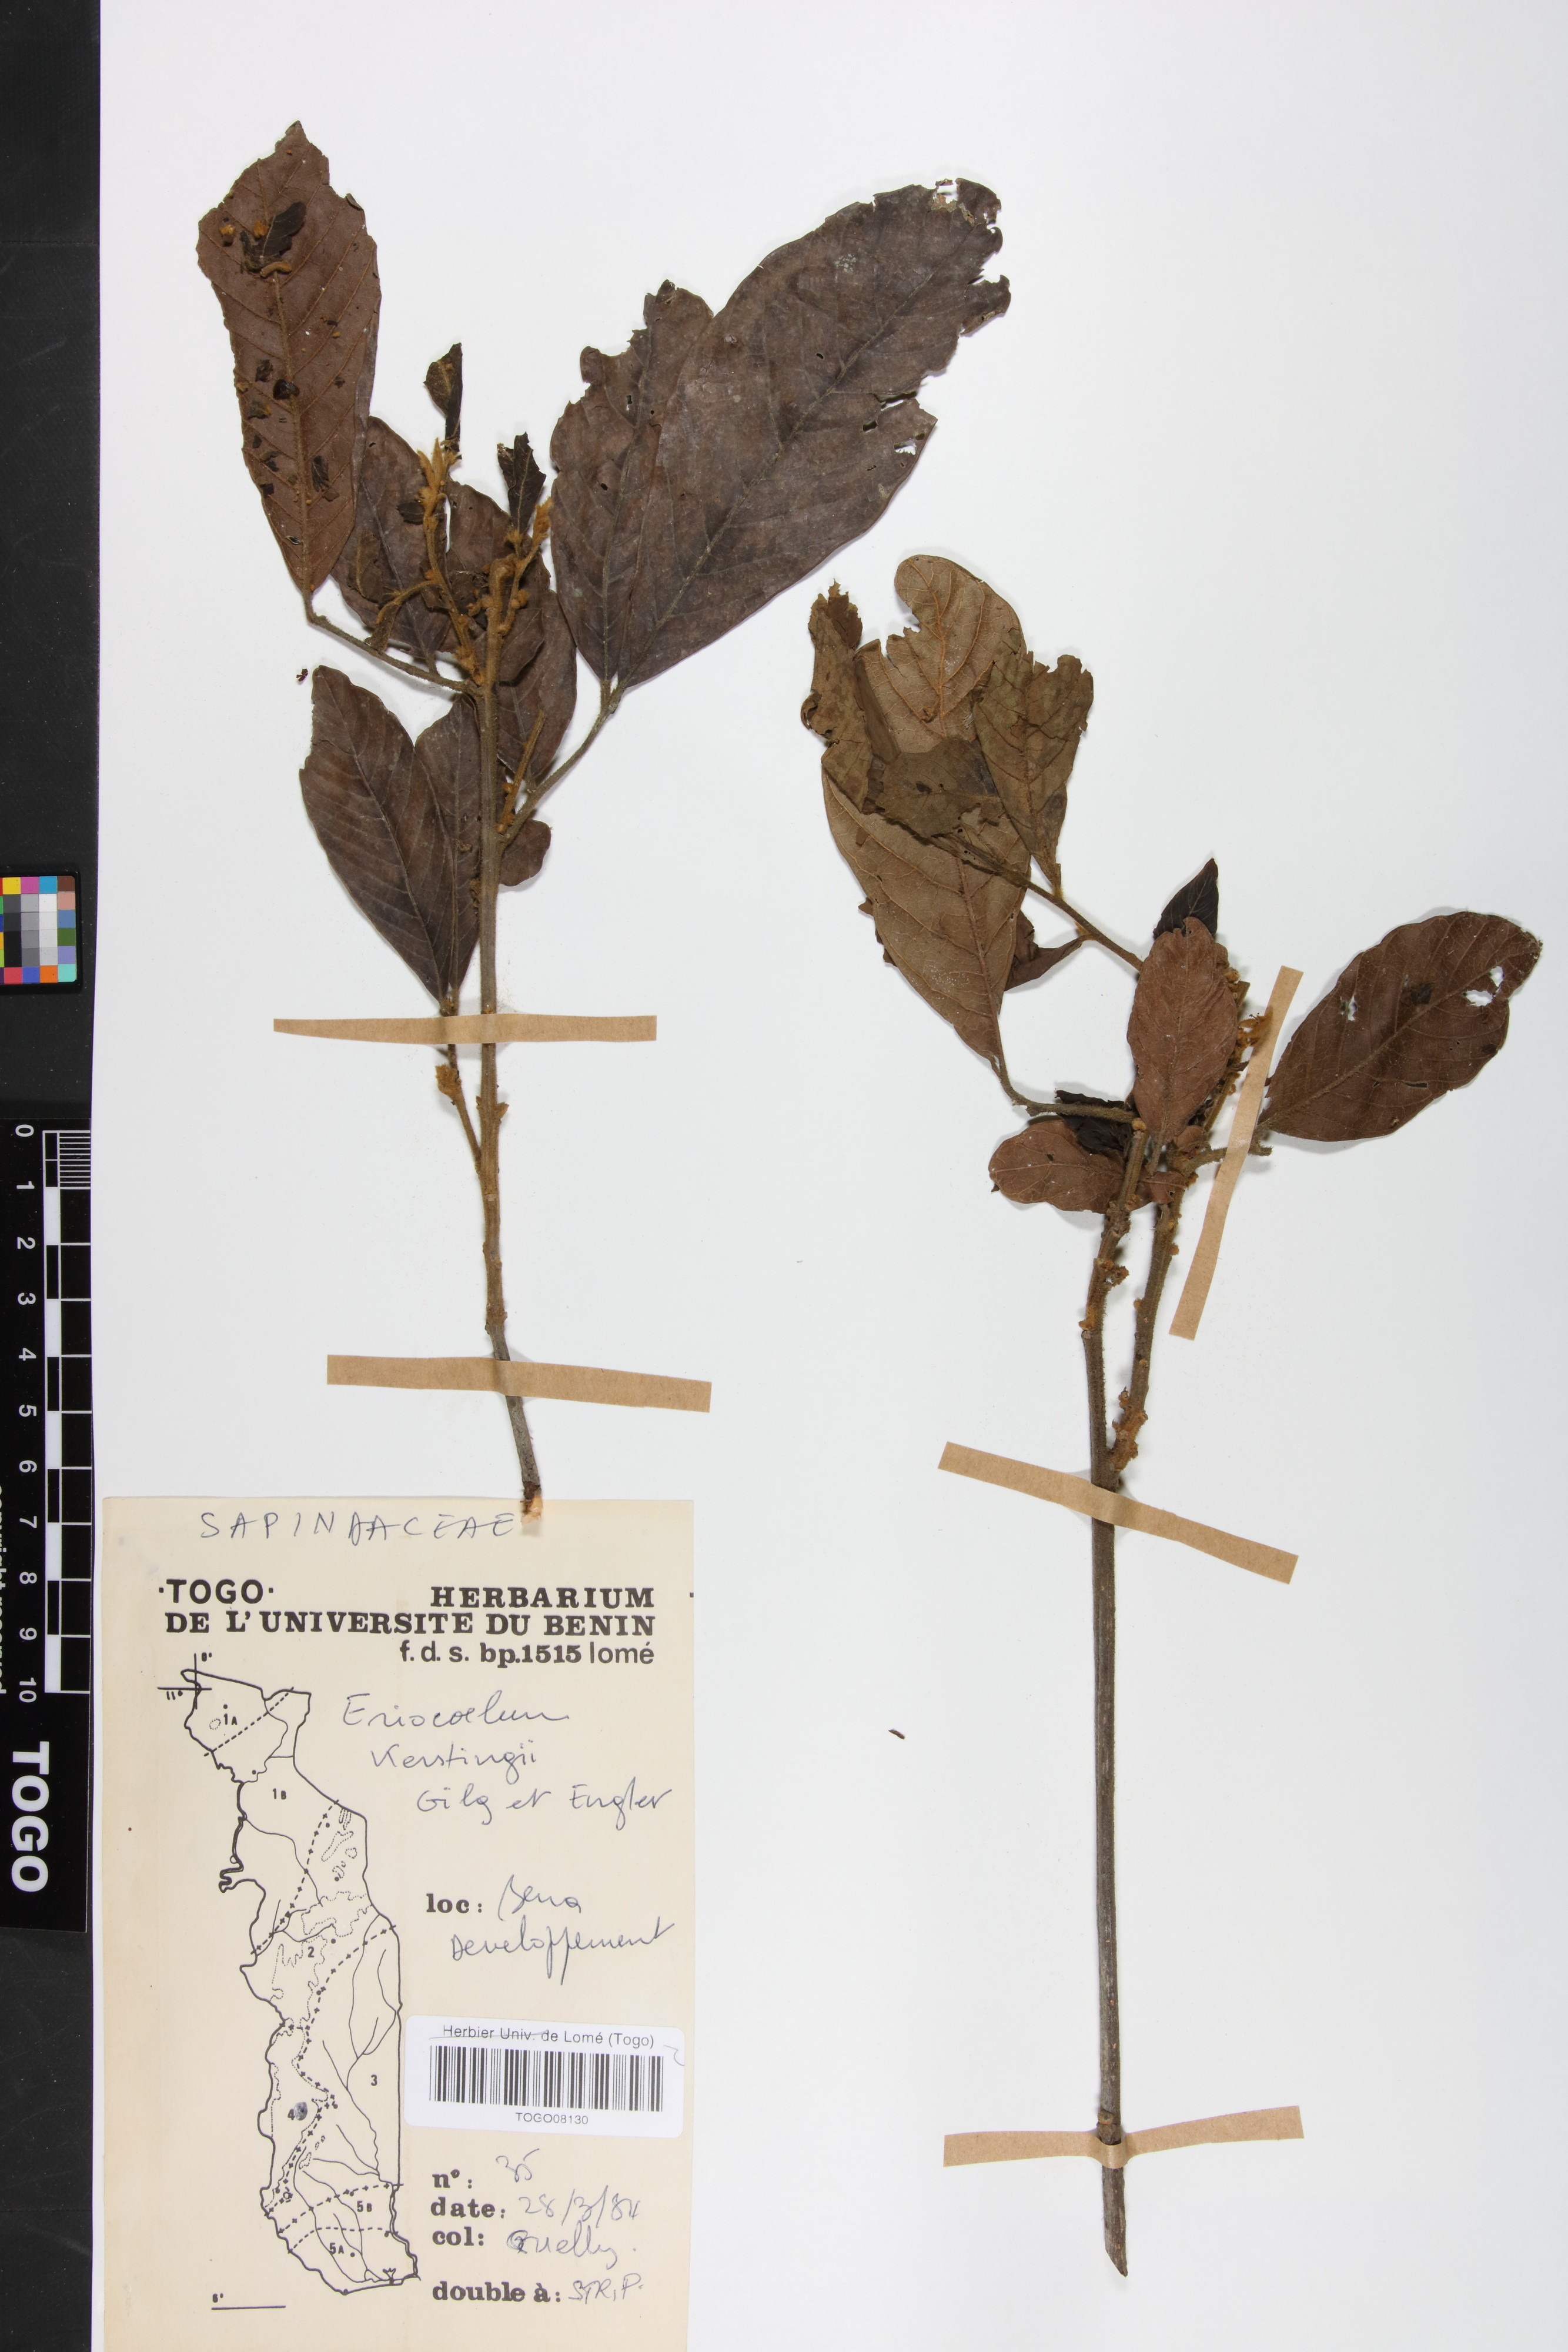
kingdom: Plantae
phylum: Tracheophyta
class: Magnoliopsida
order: Sapindales
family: Sapindaceae
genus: Eriocoelum
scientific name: Eriocoelum kerstingii
